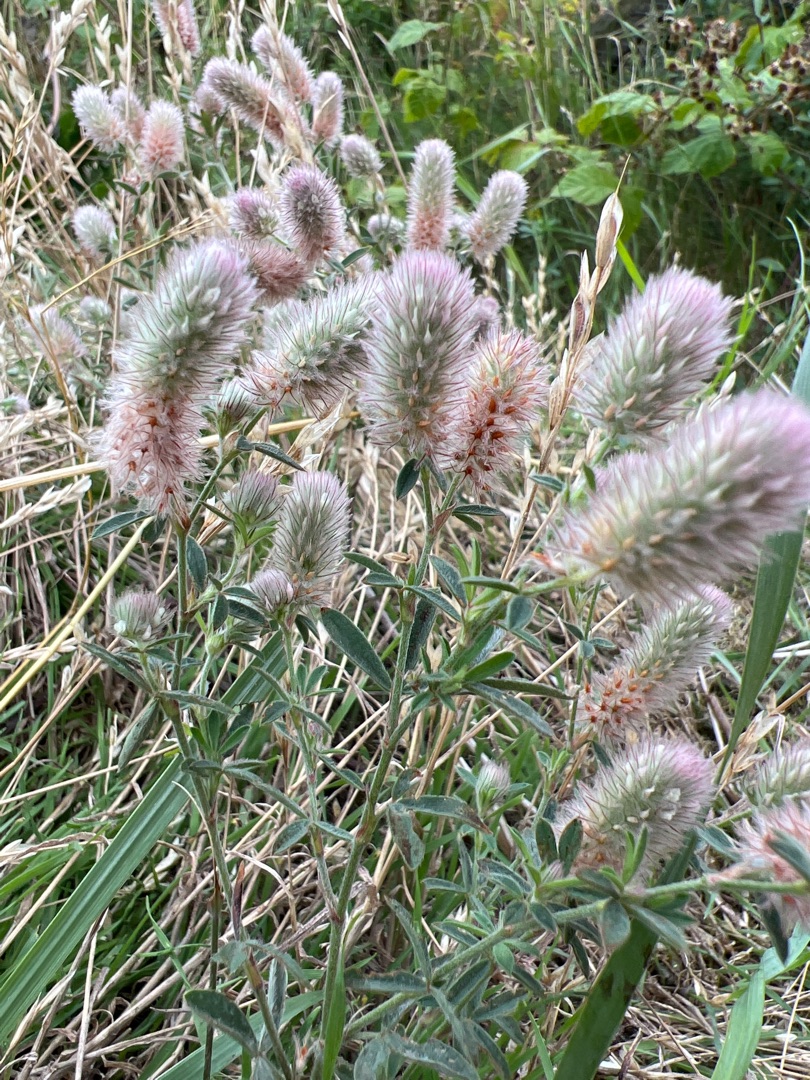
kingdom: Plantae
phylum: Tracheophyta
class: Magnoliopsida
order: Fabales
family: Fabaceae
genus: Trifolium
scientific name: Trifolium arvense
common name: Hare-kløver
